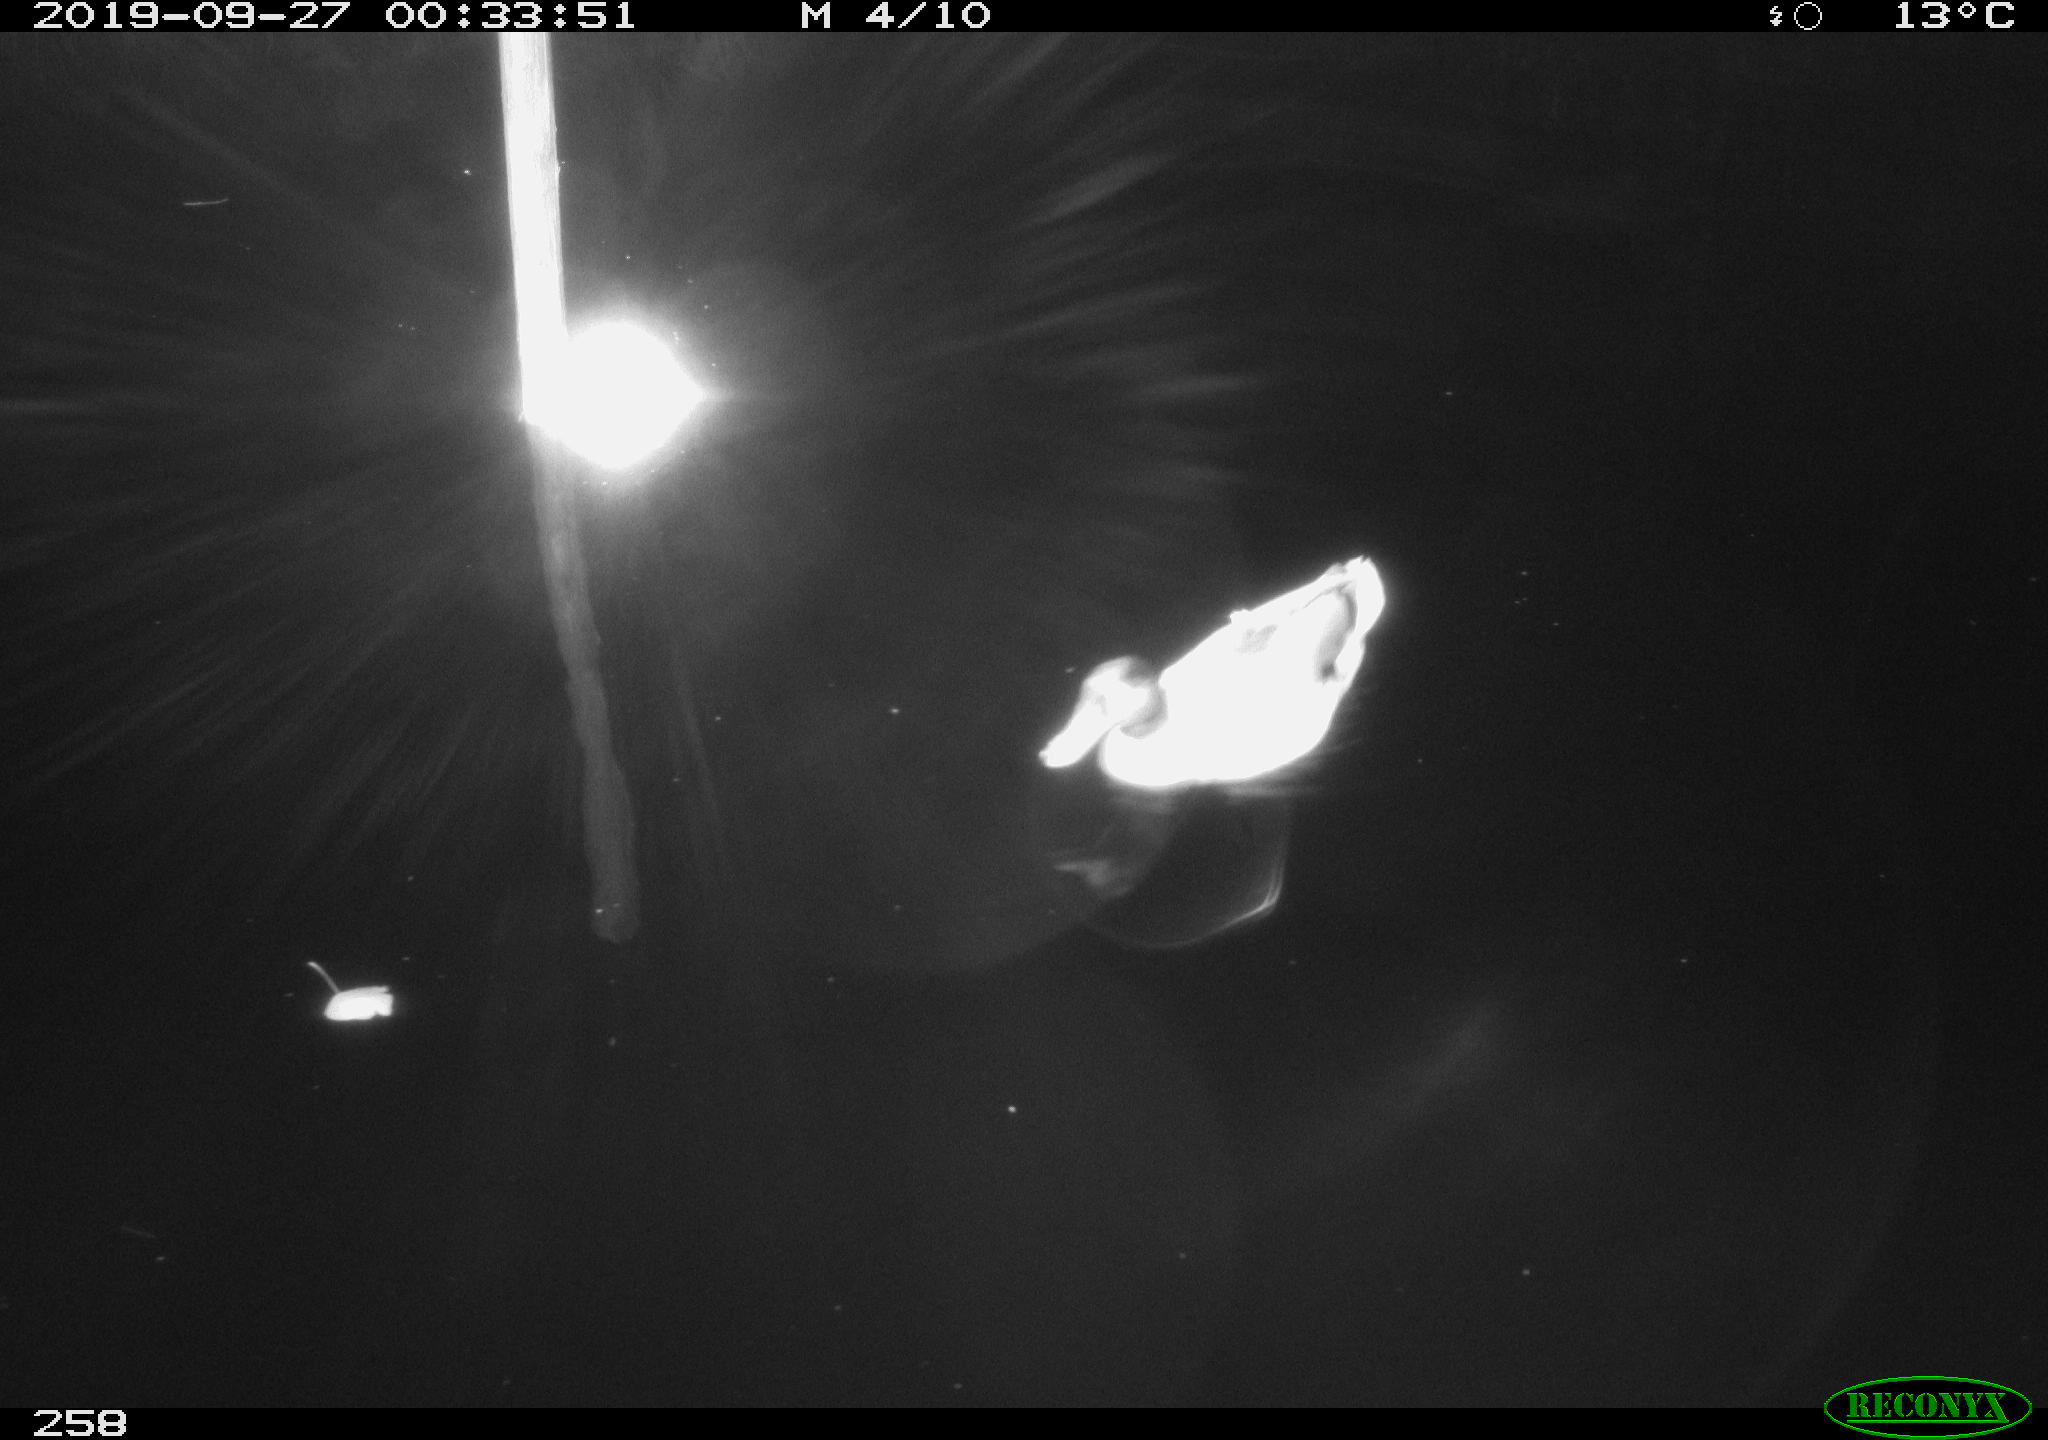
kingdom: Animalia
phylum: Chordata
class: Aves
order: Anseriformes
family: Anatidae
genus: Anas
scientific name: Anas platyrhynchos
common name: Mallard
